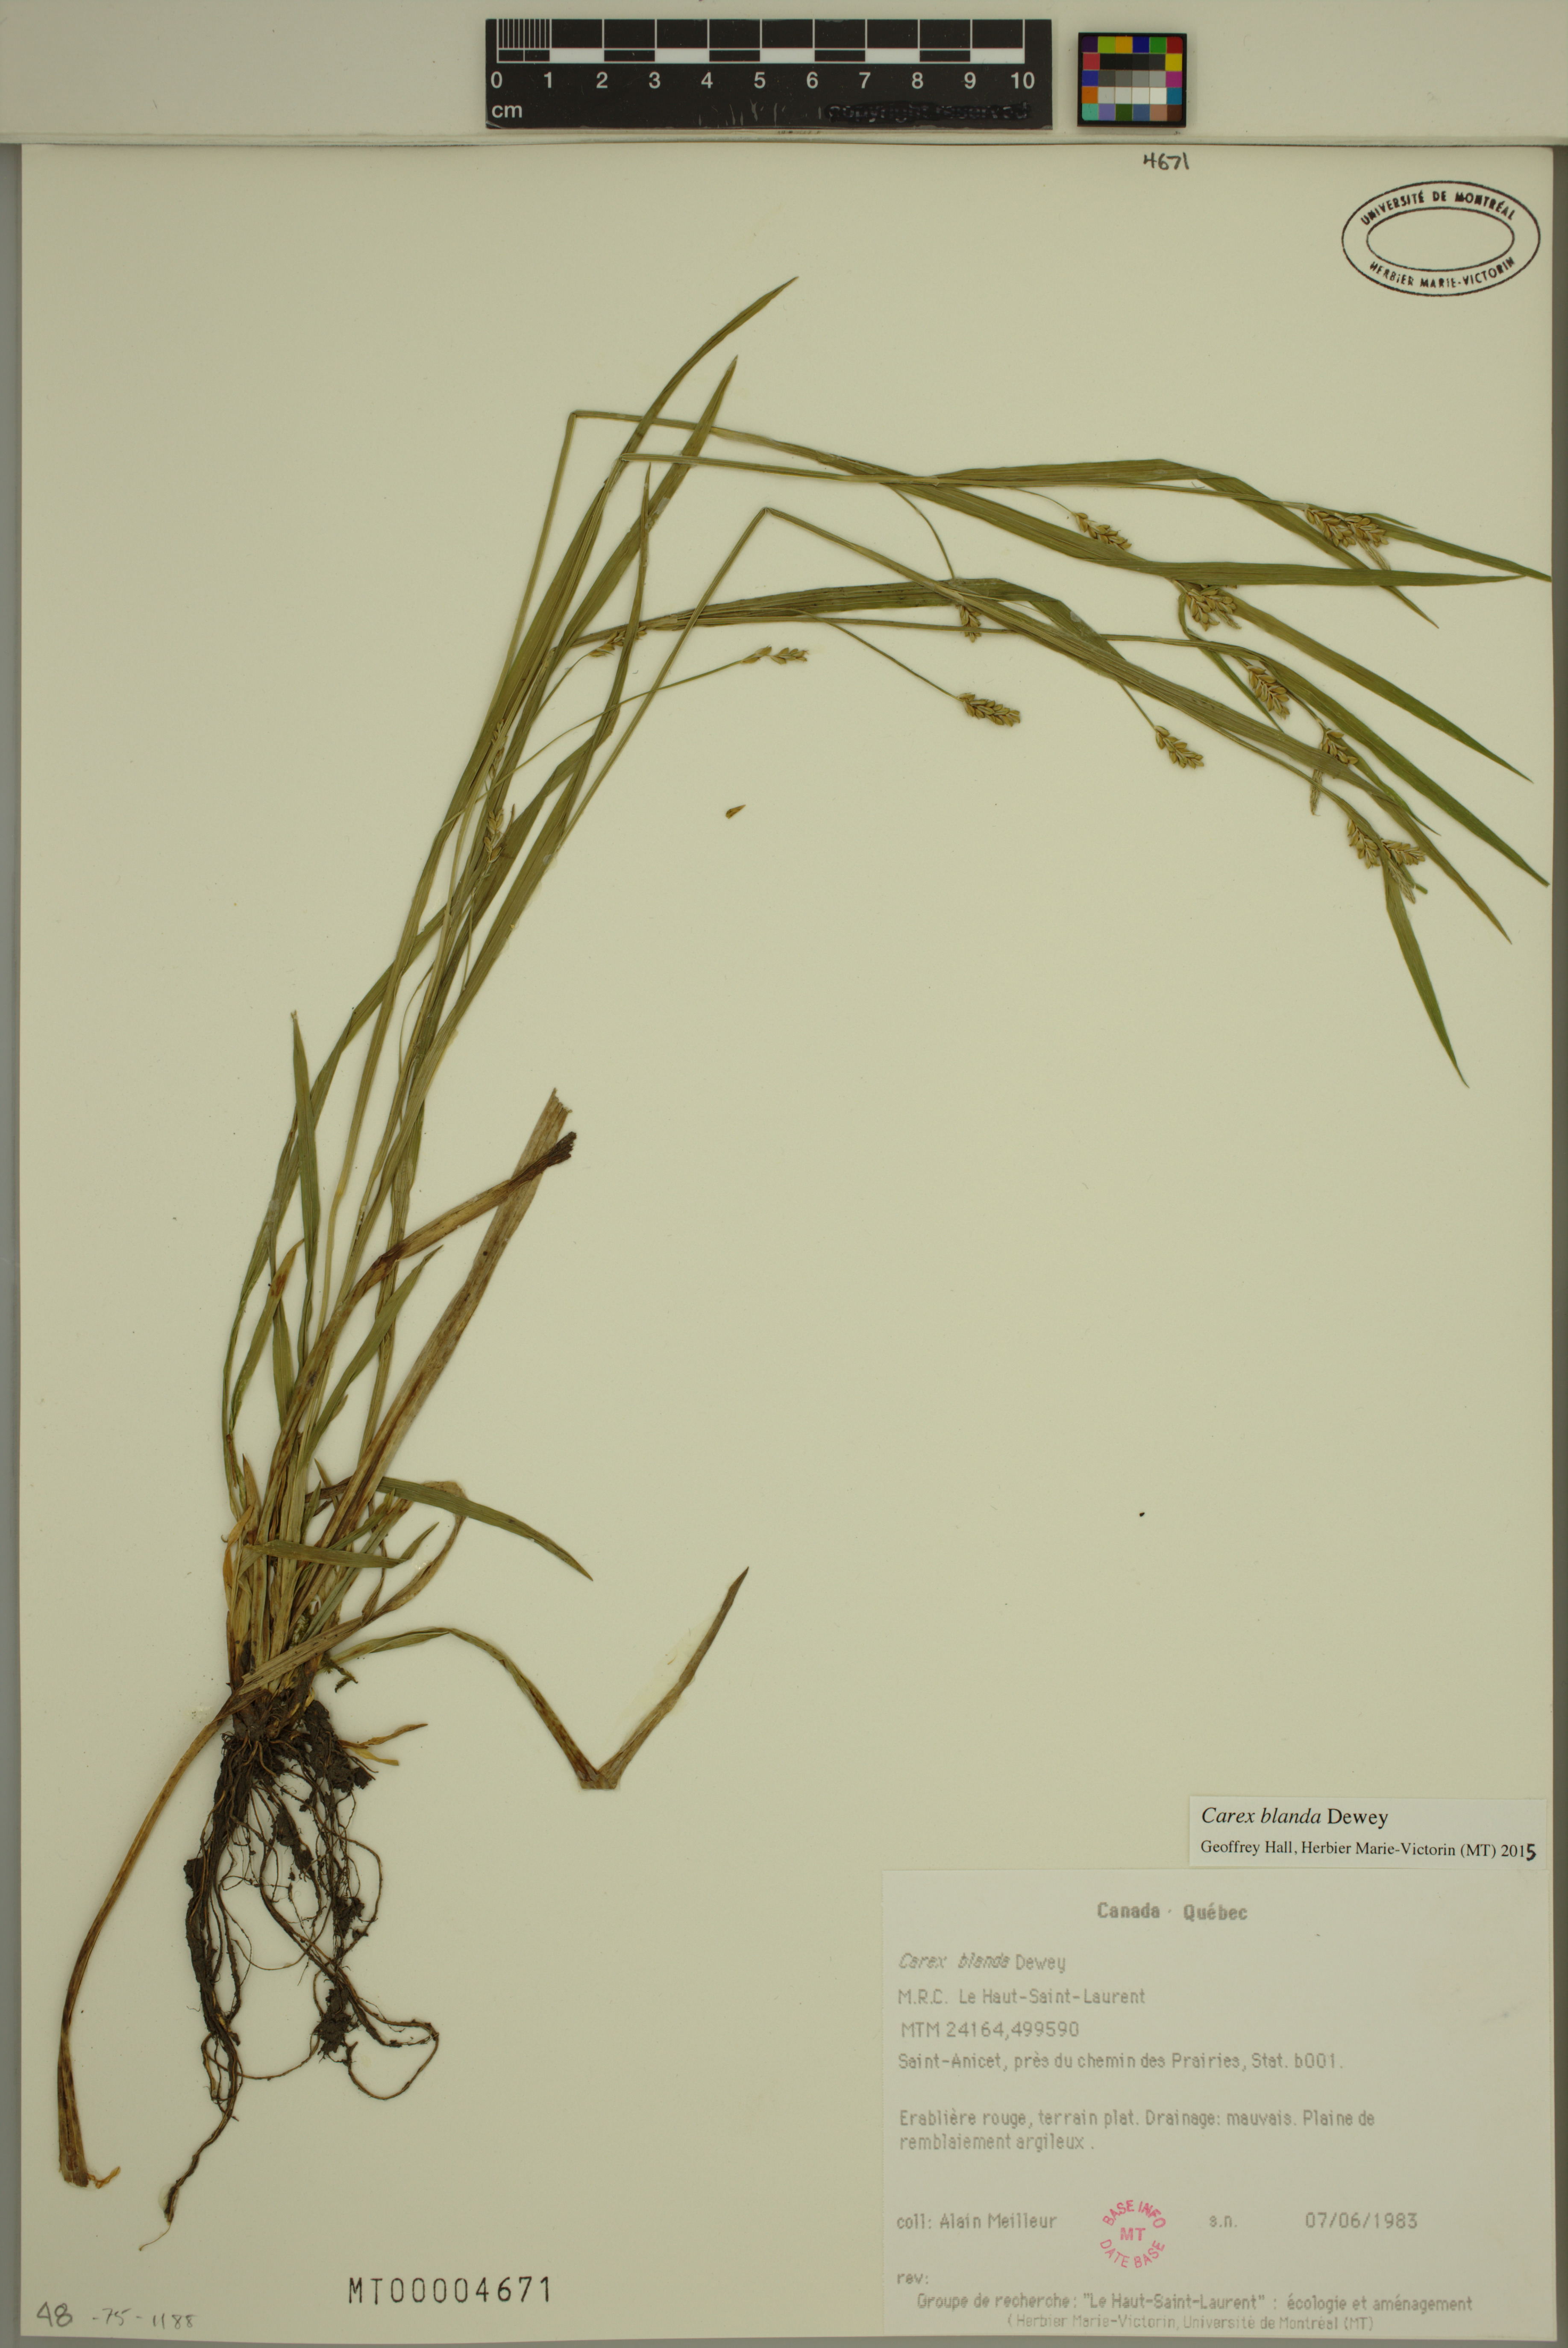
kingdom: Plantae
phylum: Tracheophyta
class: Liliopsida
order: Poales
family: Cyperaceae
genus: Carex
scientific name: Carex blanda
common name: Bland sedge
